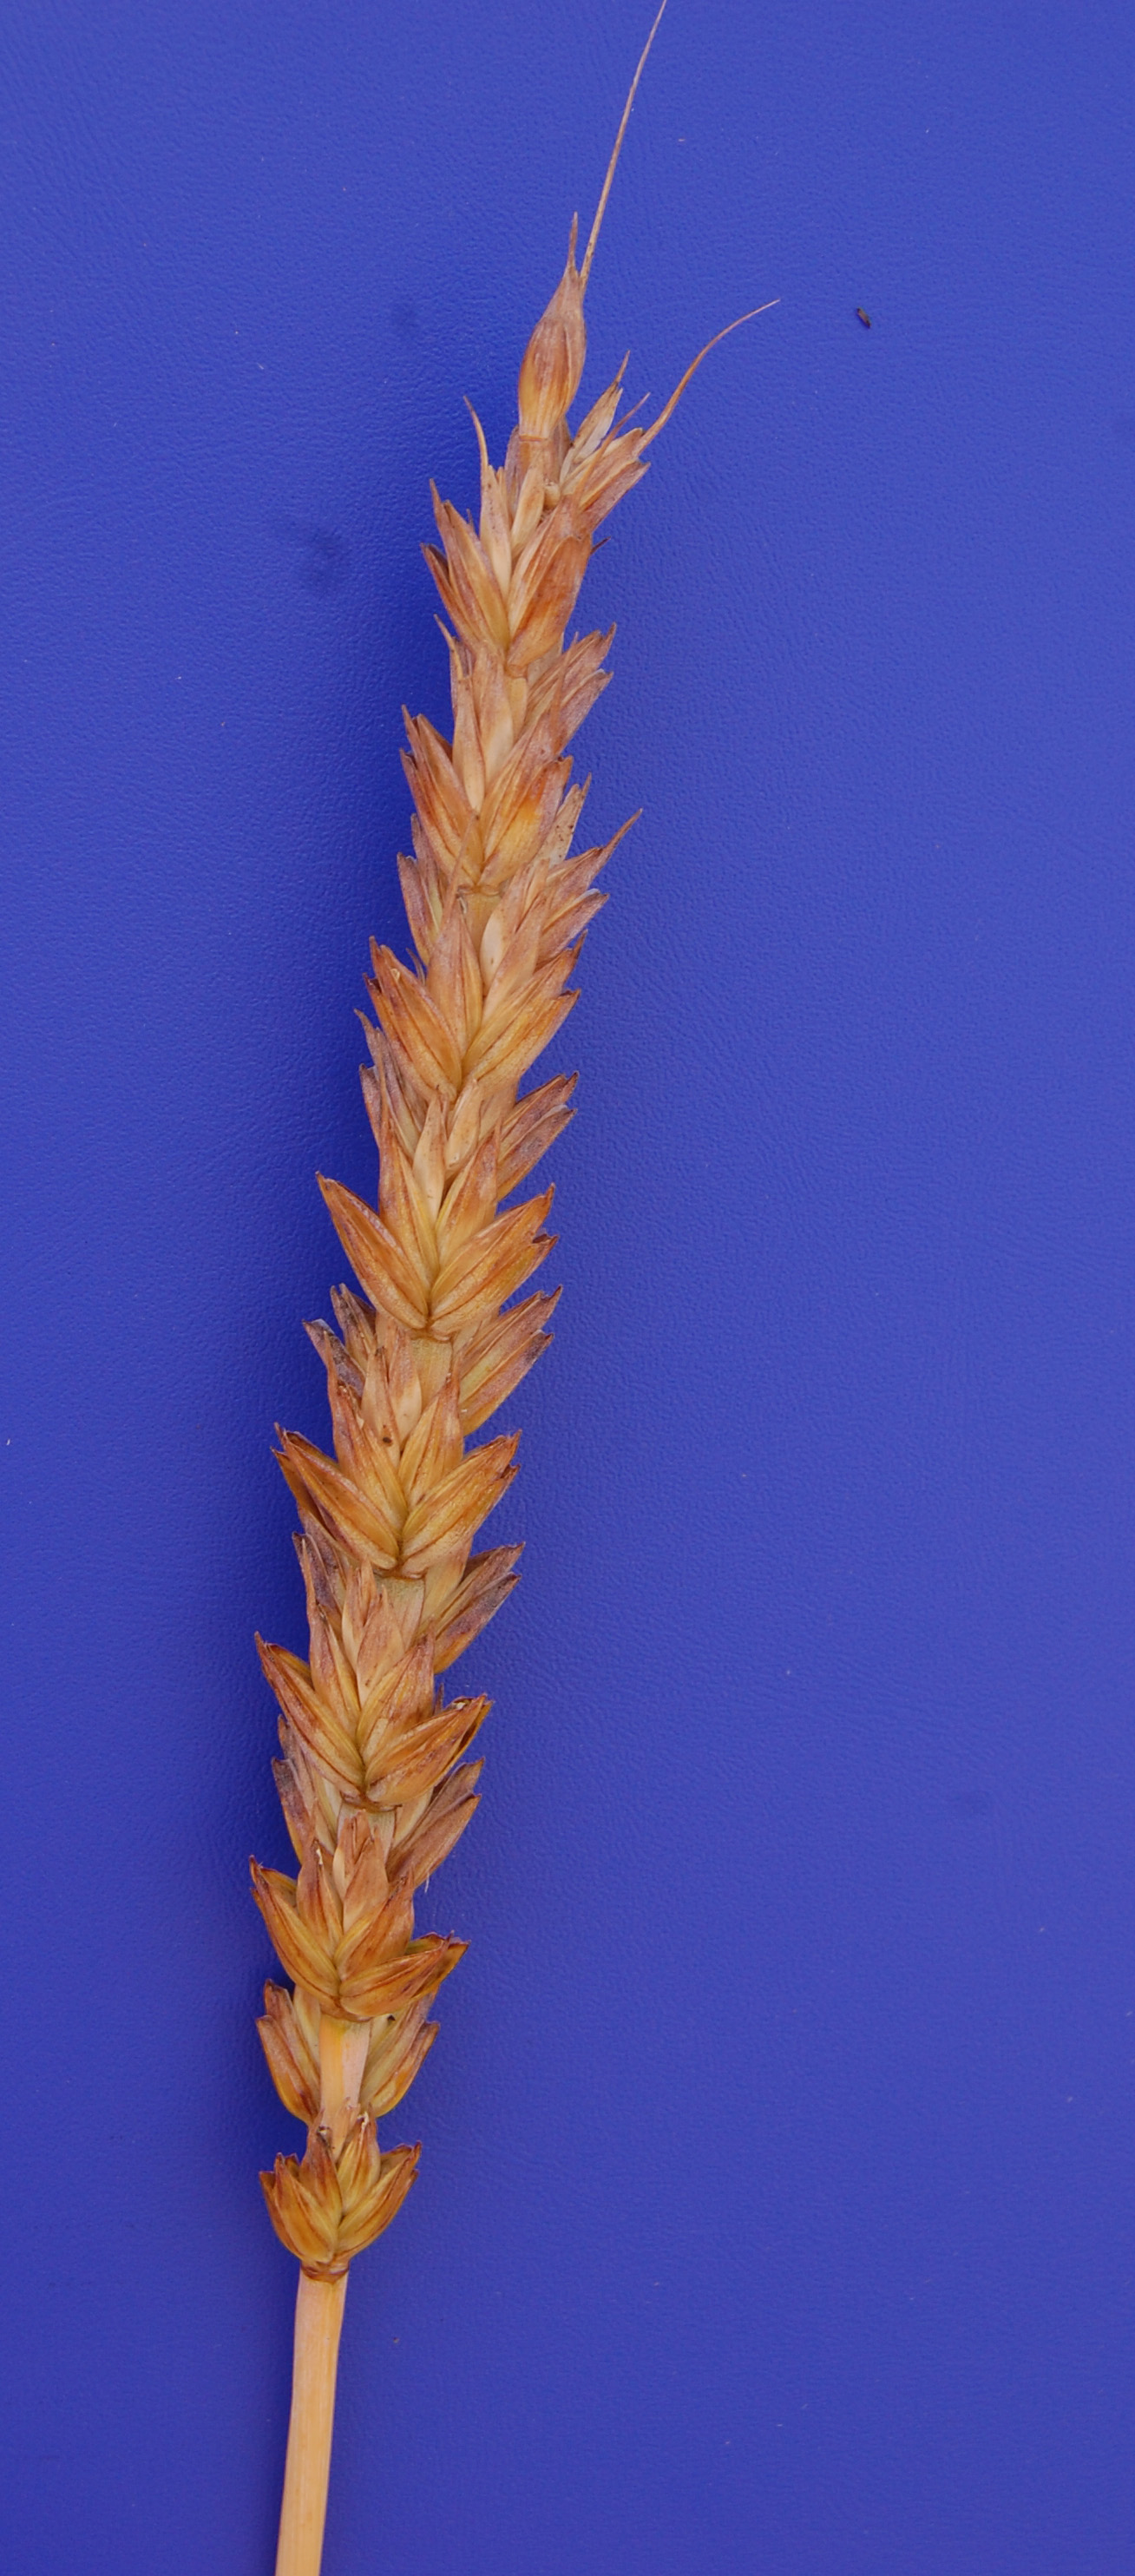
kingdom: Plantae
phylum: Tracheophyta
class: Liliopsida
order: Poales
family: Poaceae
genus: Triticum
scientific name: Triticum aestivum
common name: Common wheat
